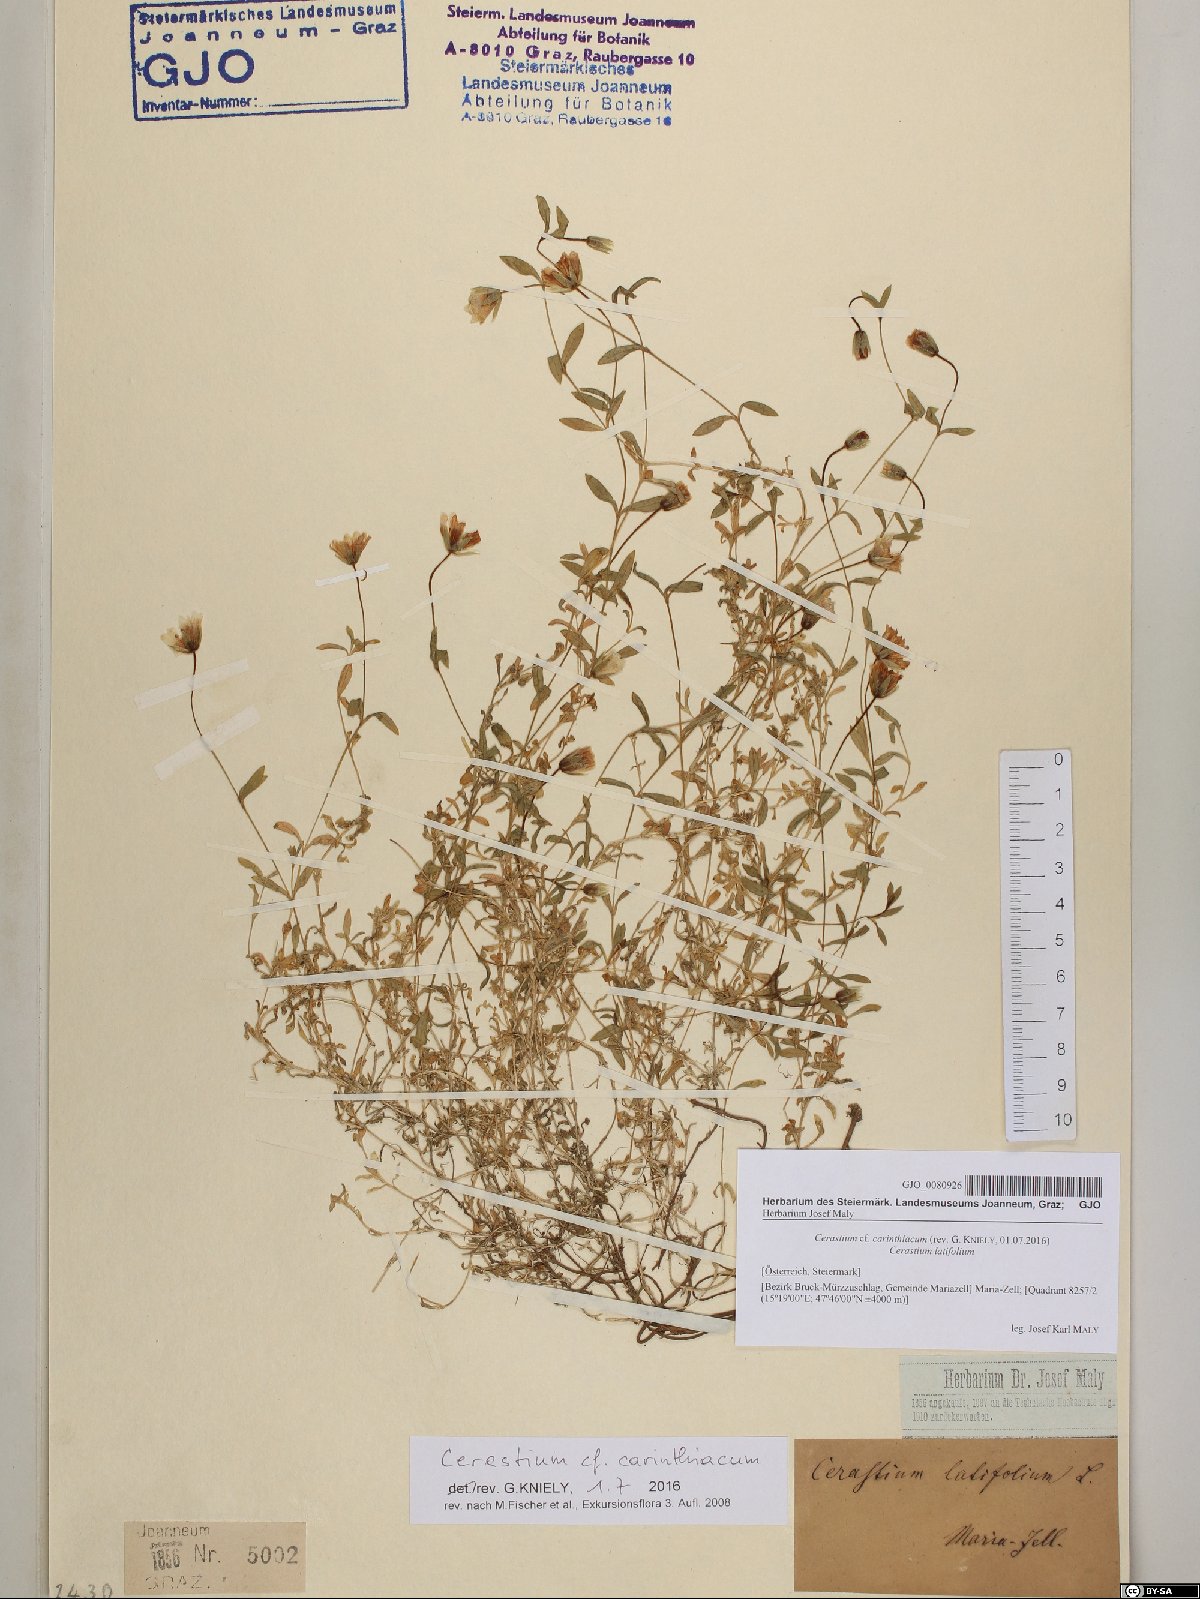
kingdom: Plantae
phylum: Tracheophyta
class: Magnoliopsida
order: Caryophyllales
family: Caryophyllaceae
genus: Cerastium
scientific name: Cerastium carinthiacum
